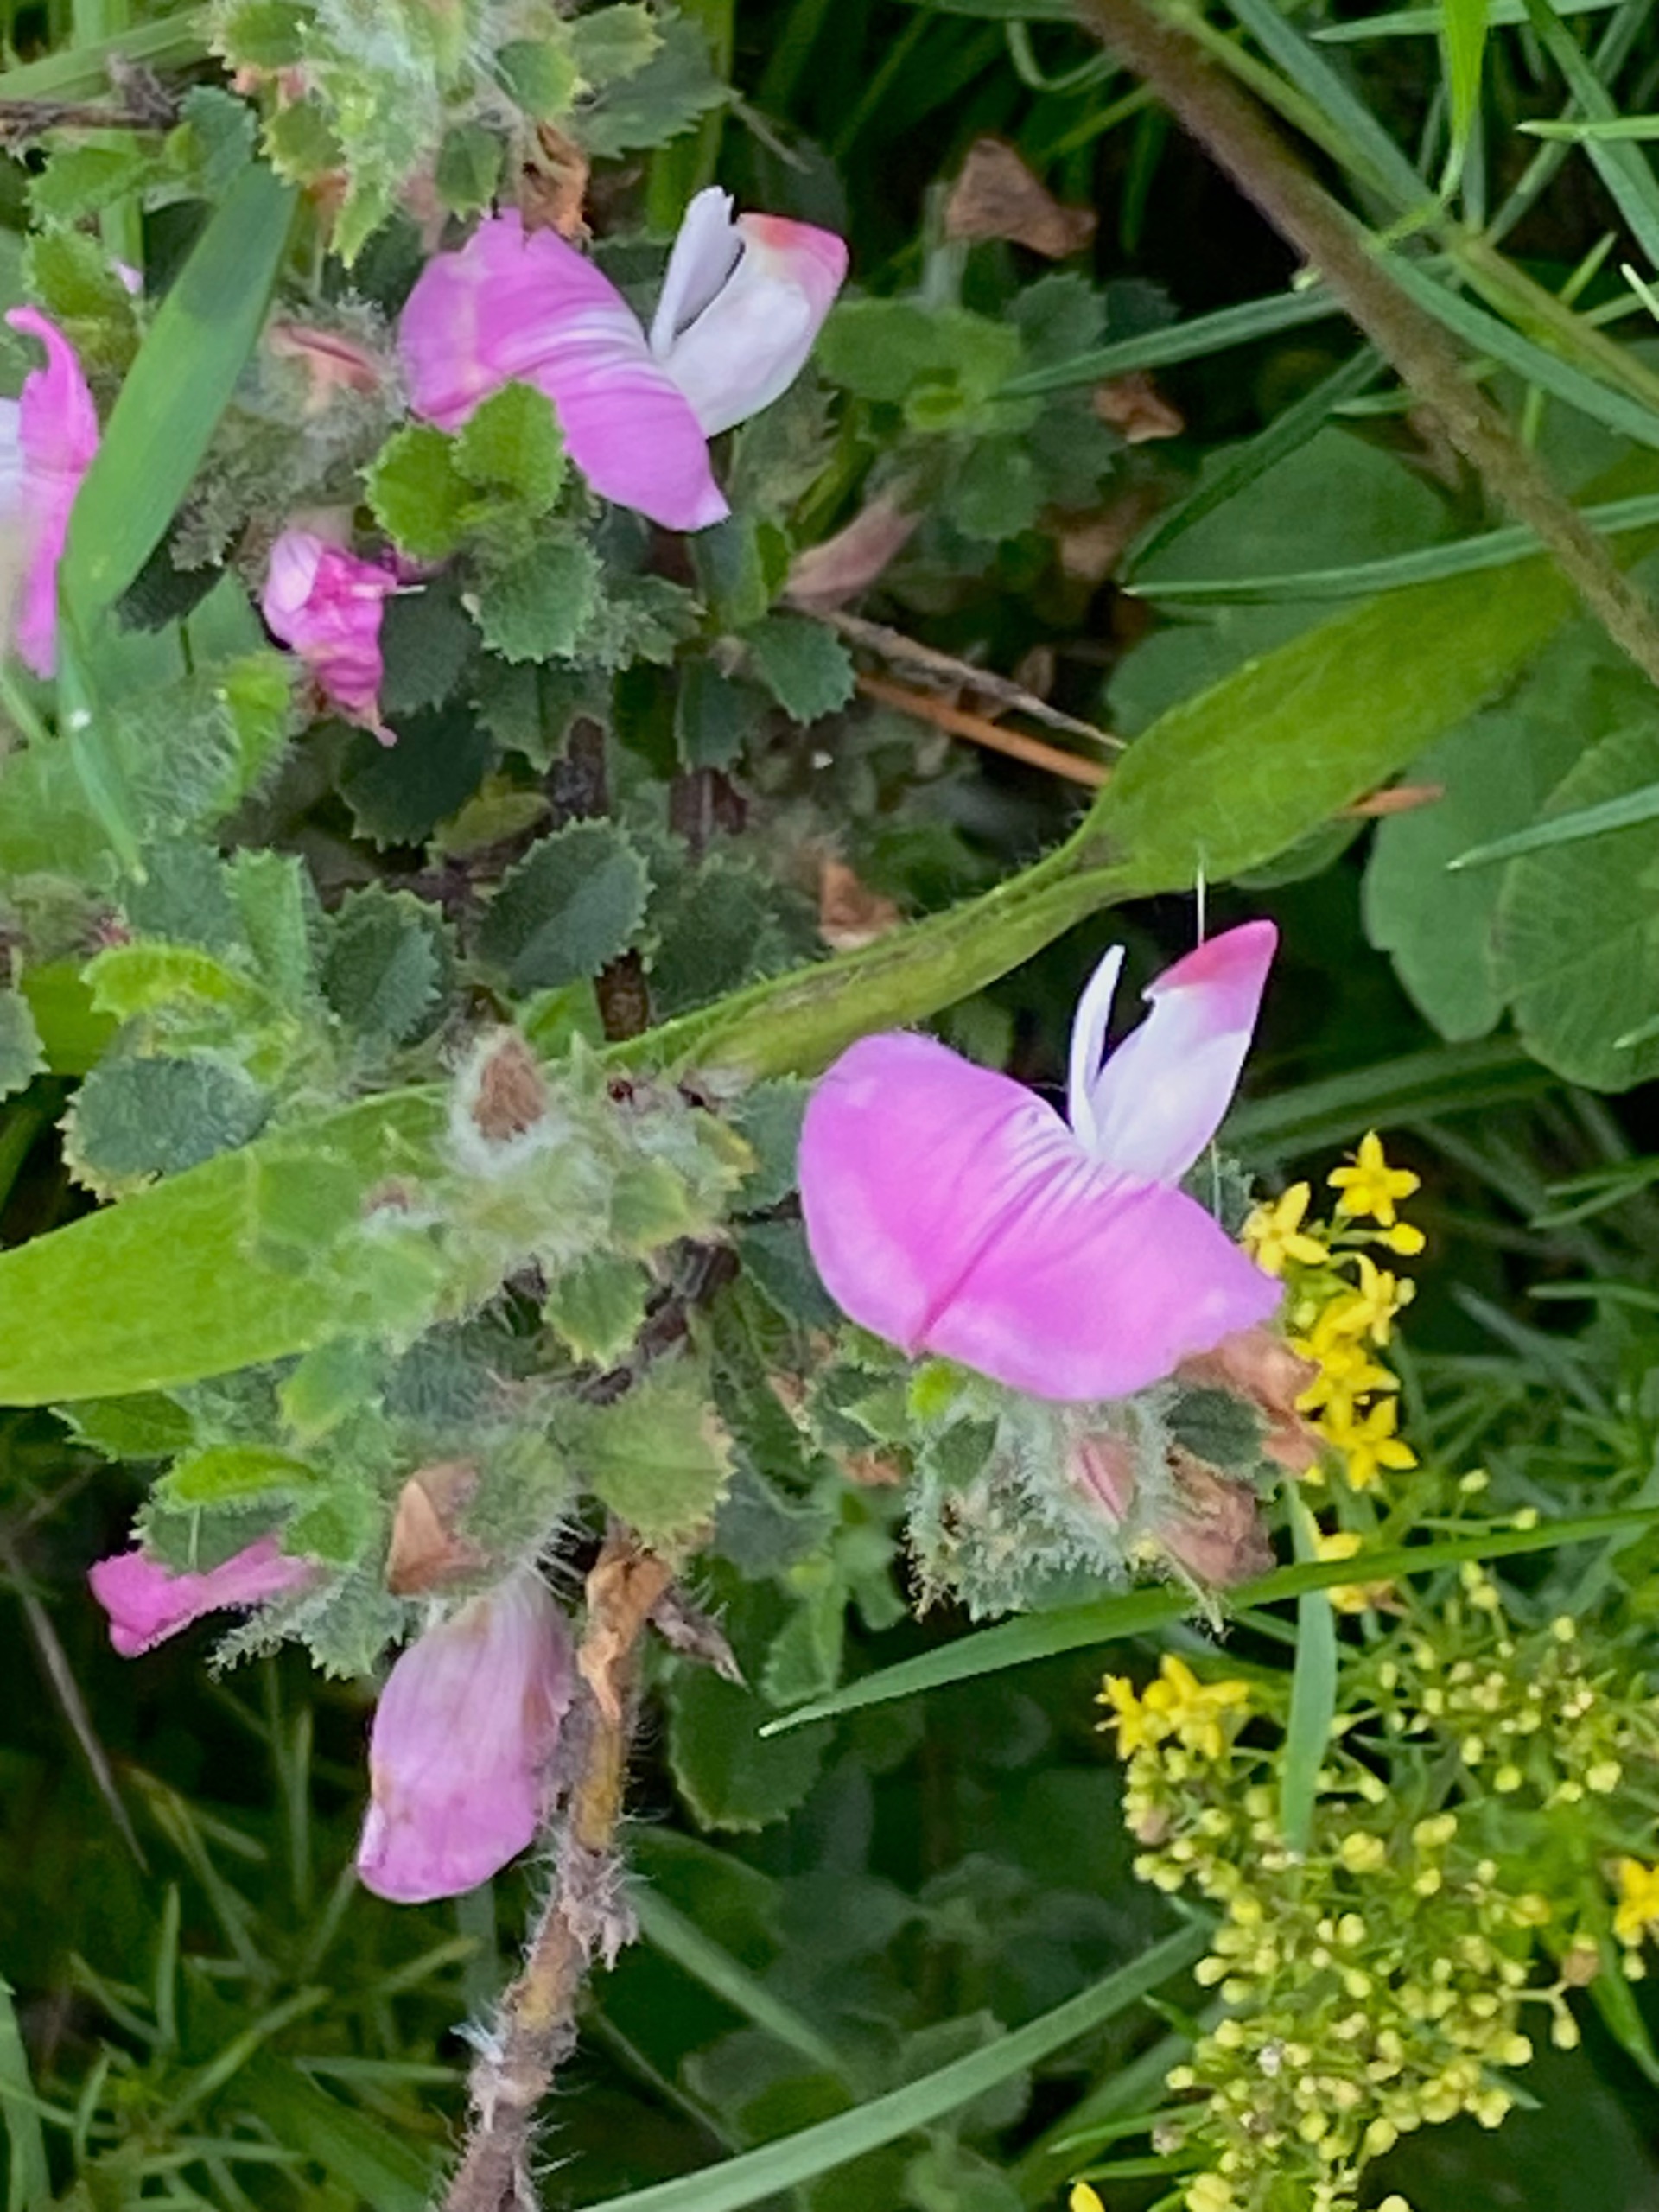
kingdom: Plantae
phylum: Tracheophyta
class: Magnoliopsida
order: Fabales
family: Fabaceae
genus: Ononis
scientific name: Ononis spinosa
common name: Mark-krageklo
